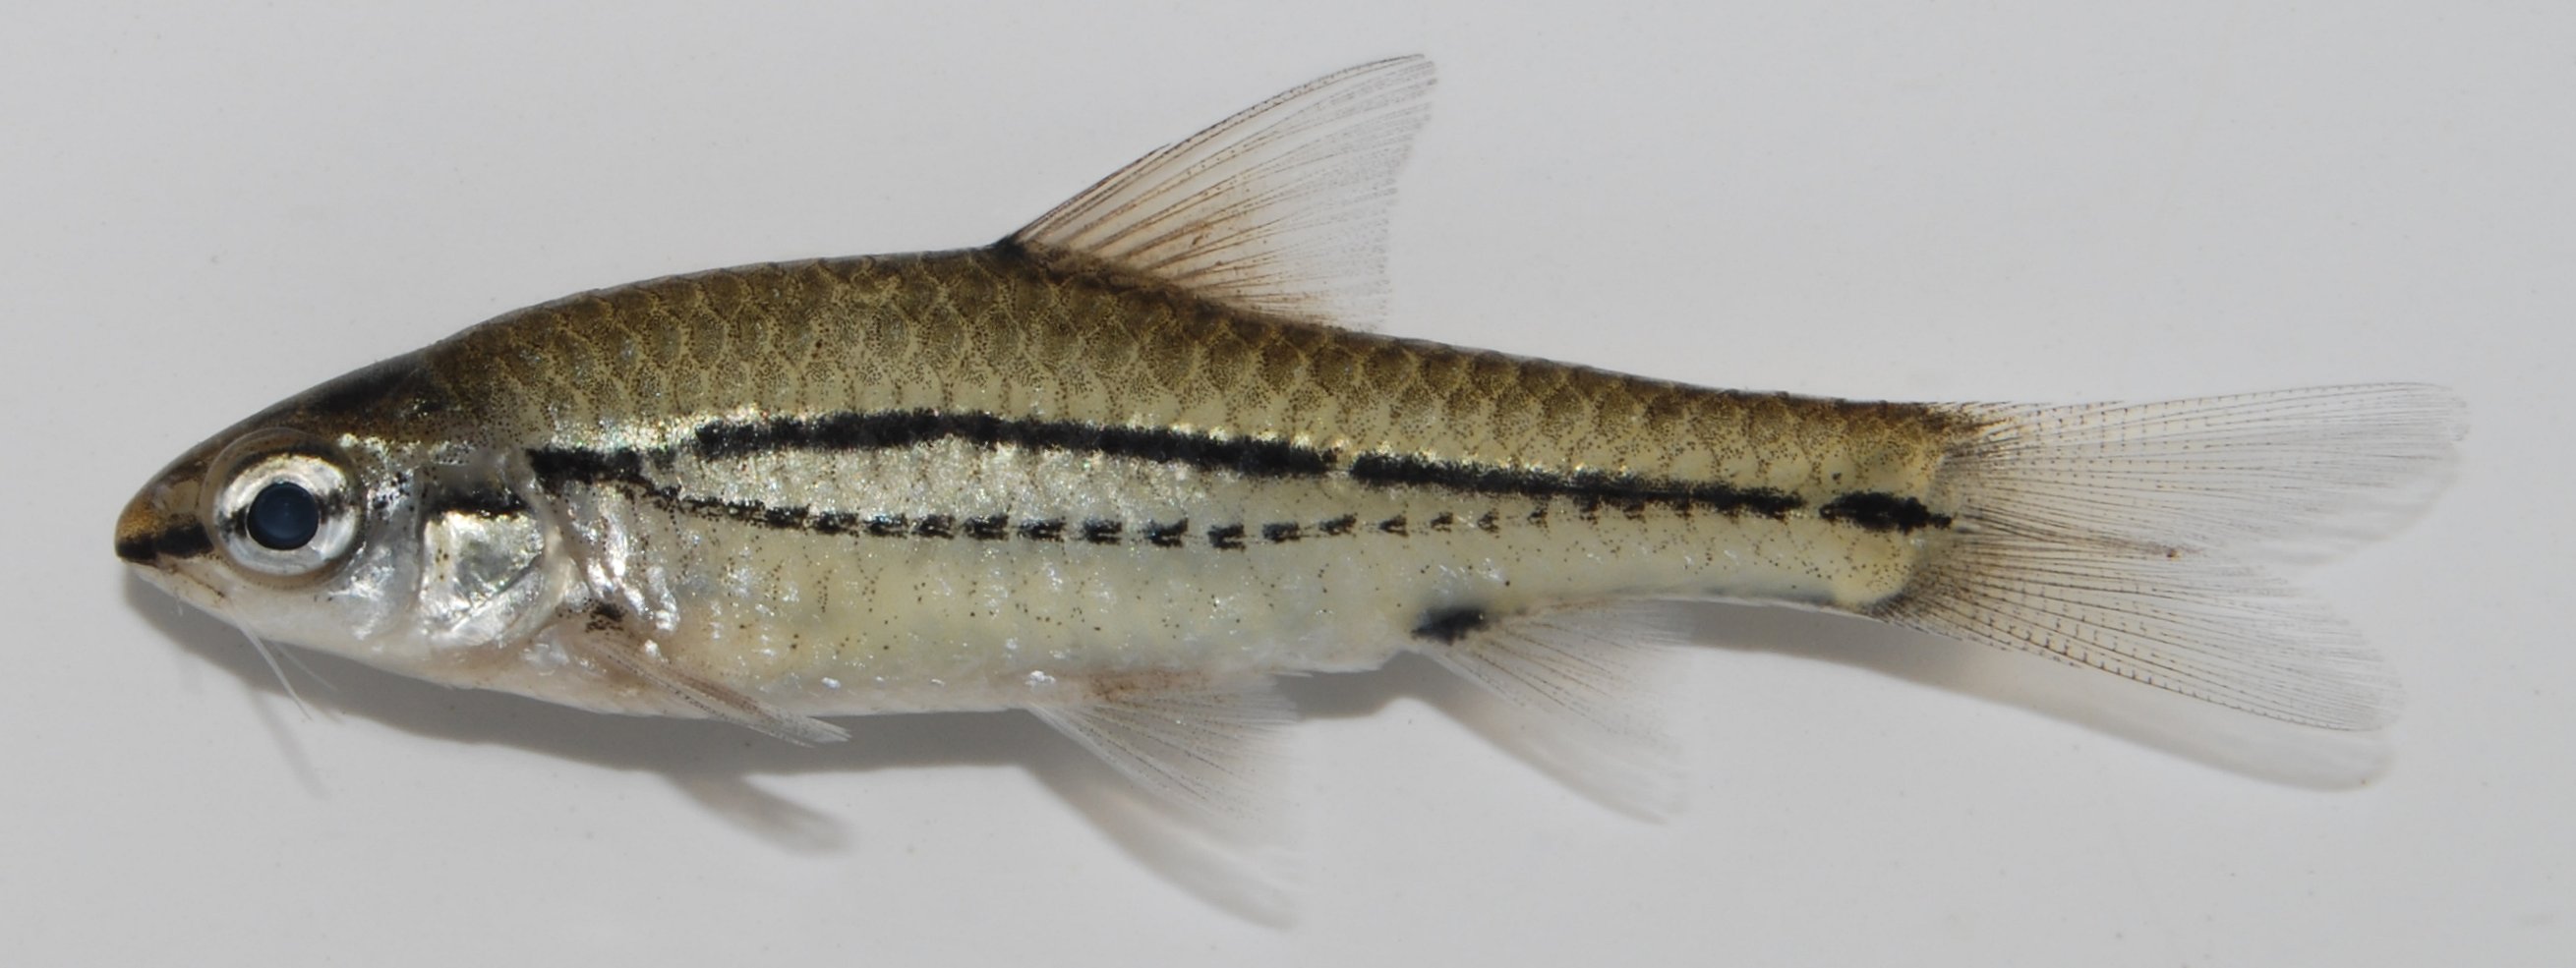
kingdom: Animalia
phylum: Chordata
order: Cypriniformes
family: Cyprinidae
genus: Enteromius
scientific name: Enteromius bifrenatus
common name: Hyphen barb
